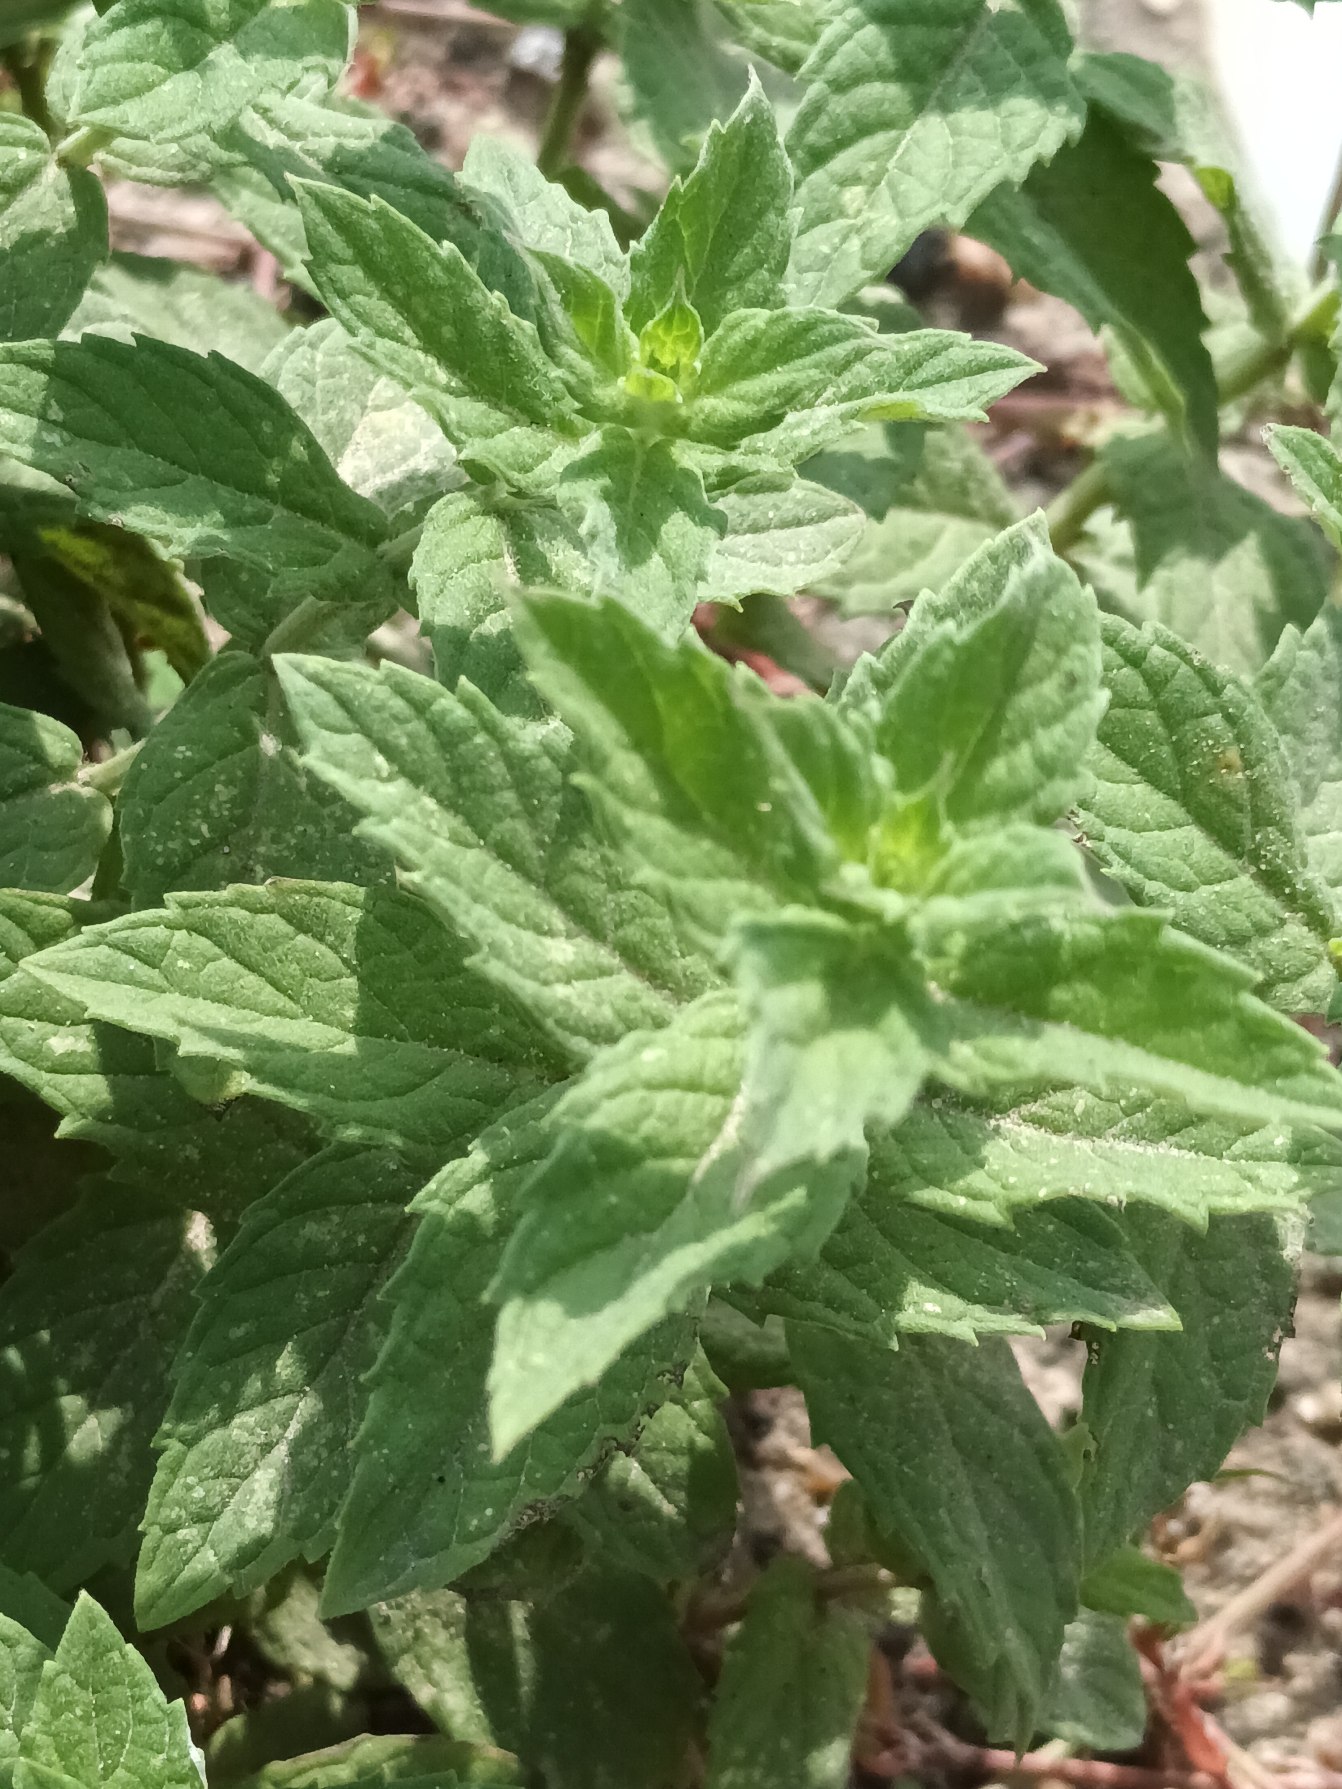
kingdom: Plantae
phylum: Tracheophyta
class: Magnoliopsida
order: Lamiales
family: Lamiaceae
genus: Mentha
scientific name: Mentha rotundifolia
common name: Grå mynte × rundbladet mynte
